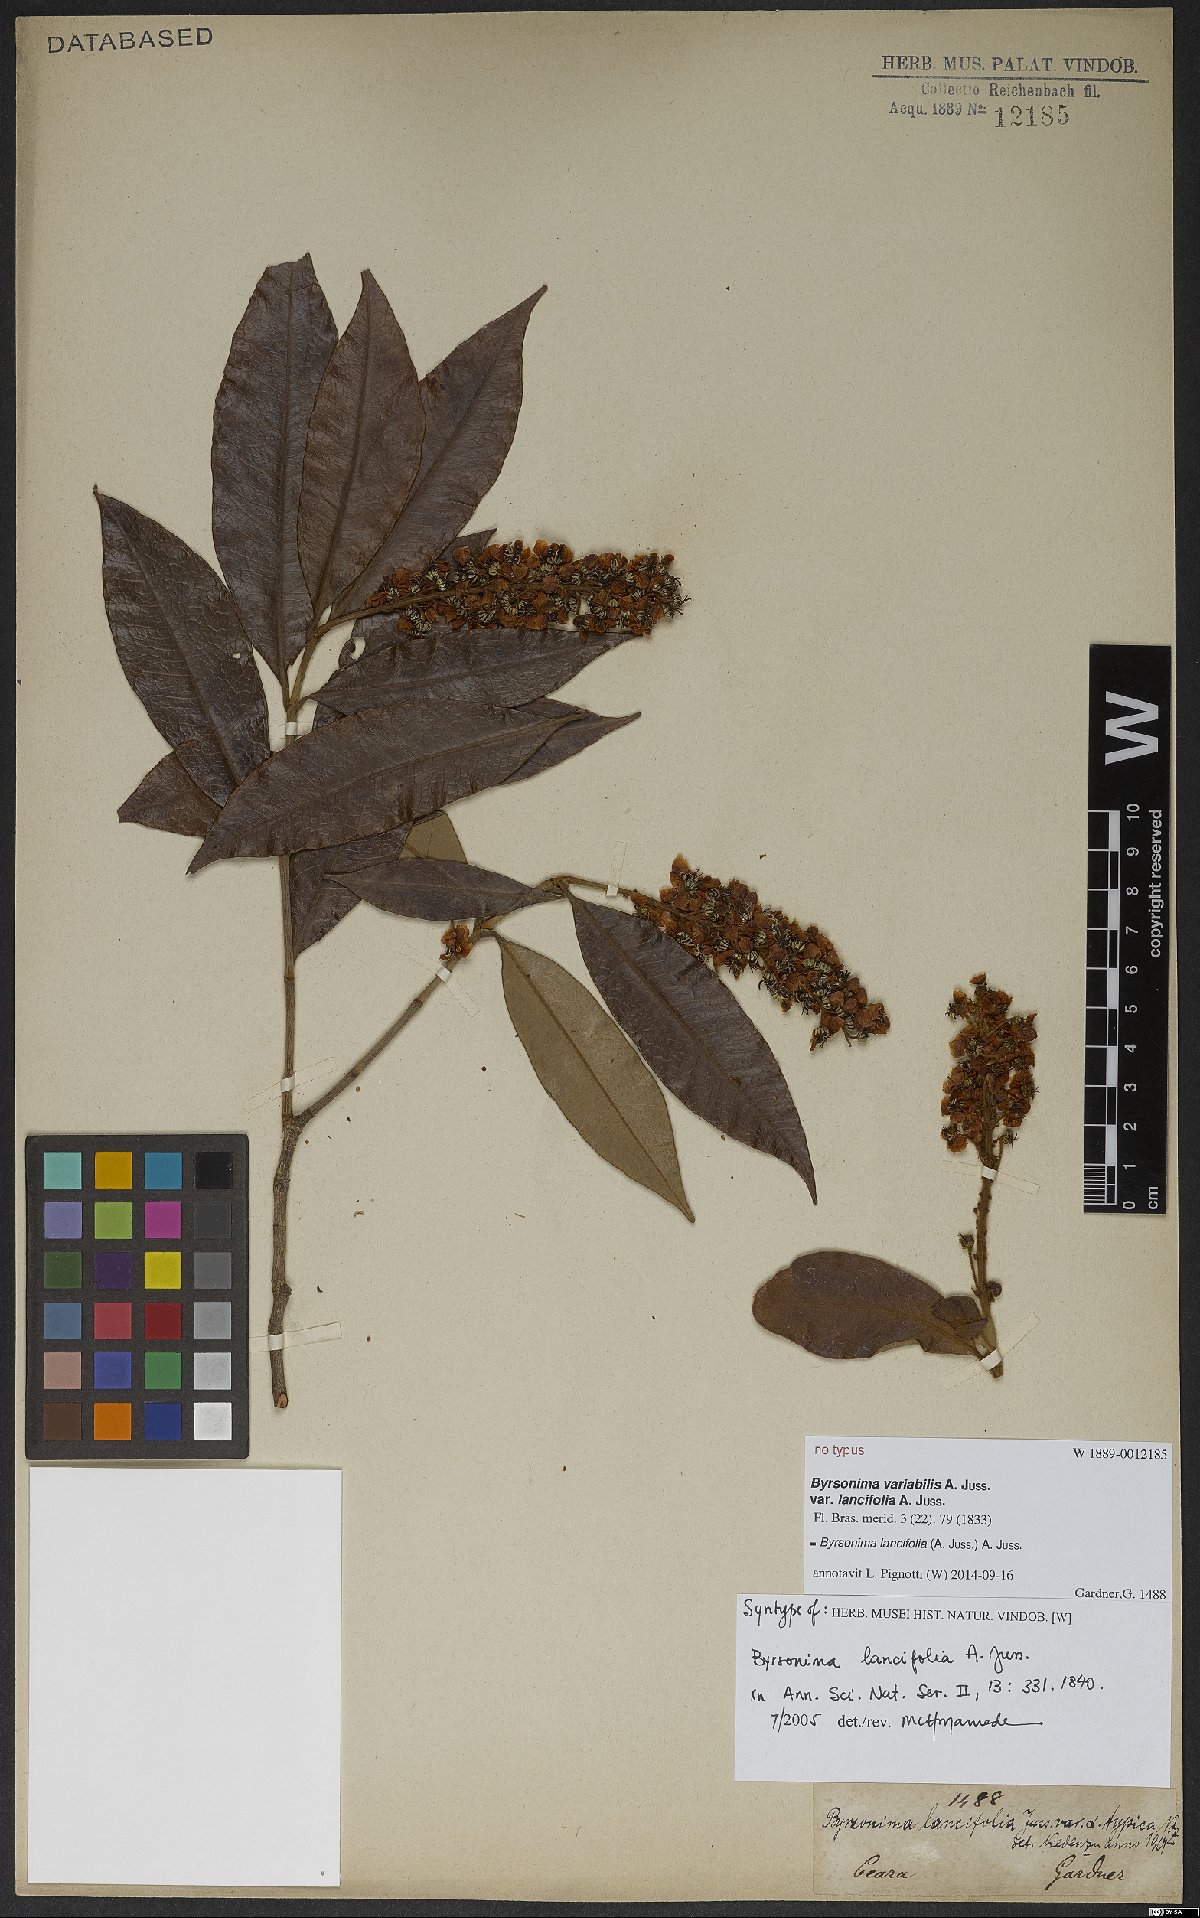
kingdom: Plantae
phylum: Tracheophyta
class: Magnoliopsida
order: Malpighiales
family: Malpighiaceae
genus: Byrsonima
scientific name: Byrsonima lancifolia
